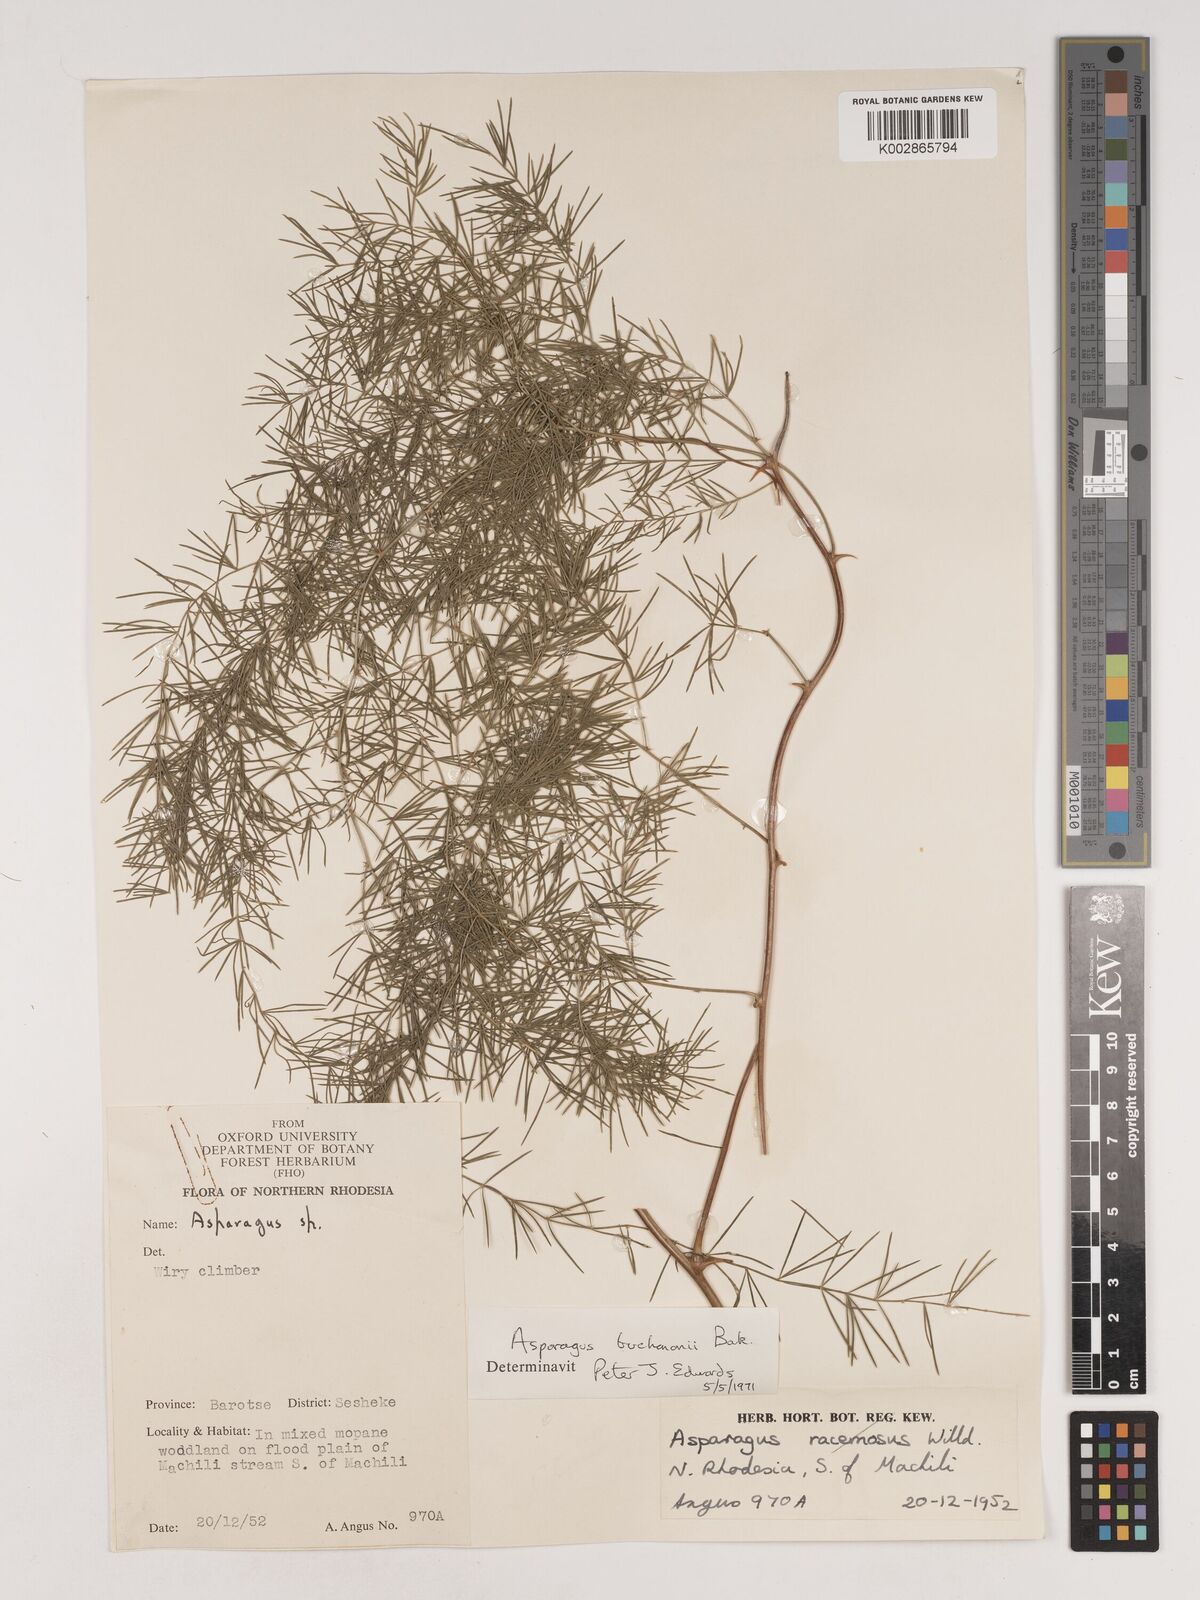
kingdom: Plantae
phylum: Tracheophyta
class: Liliopsida
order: Asparagales
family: Asparagaceae
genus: Asparagus
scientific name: Asparagus buchananii
